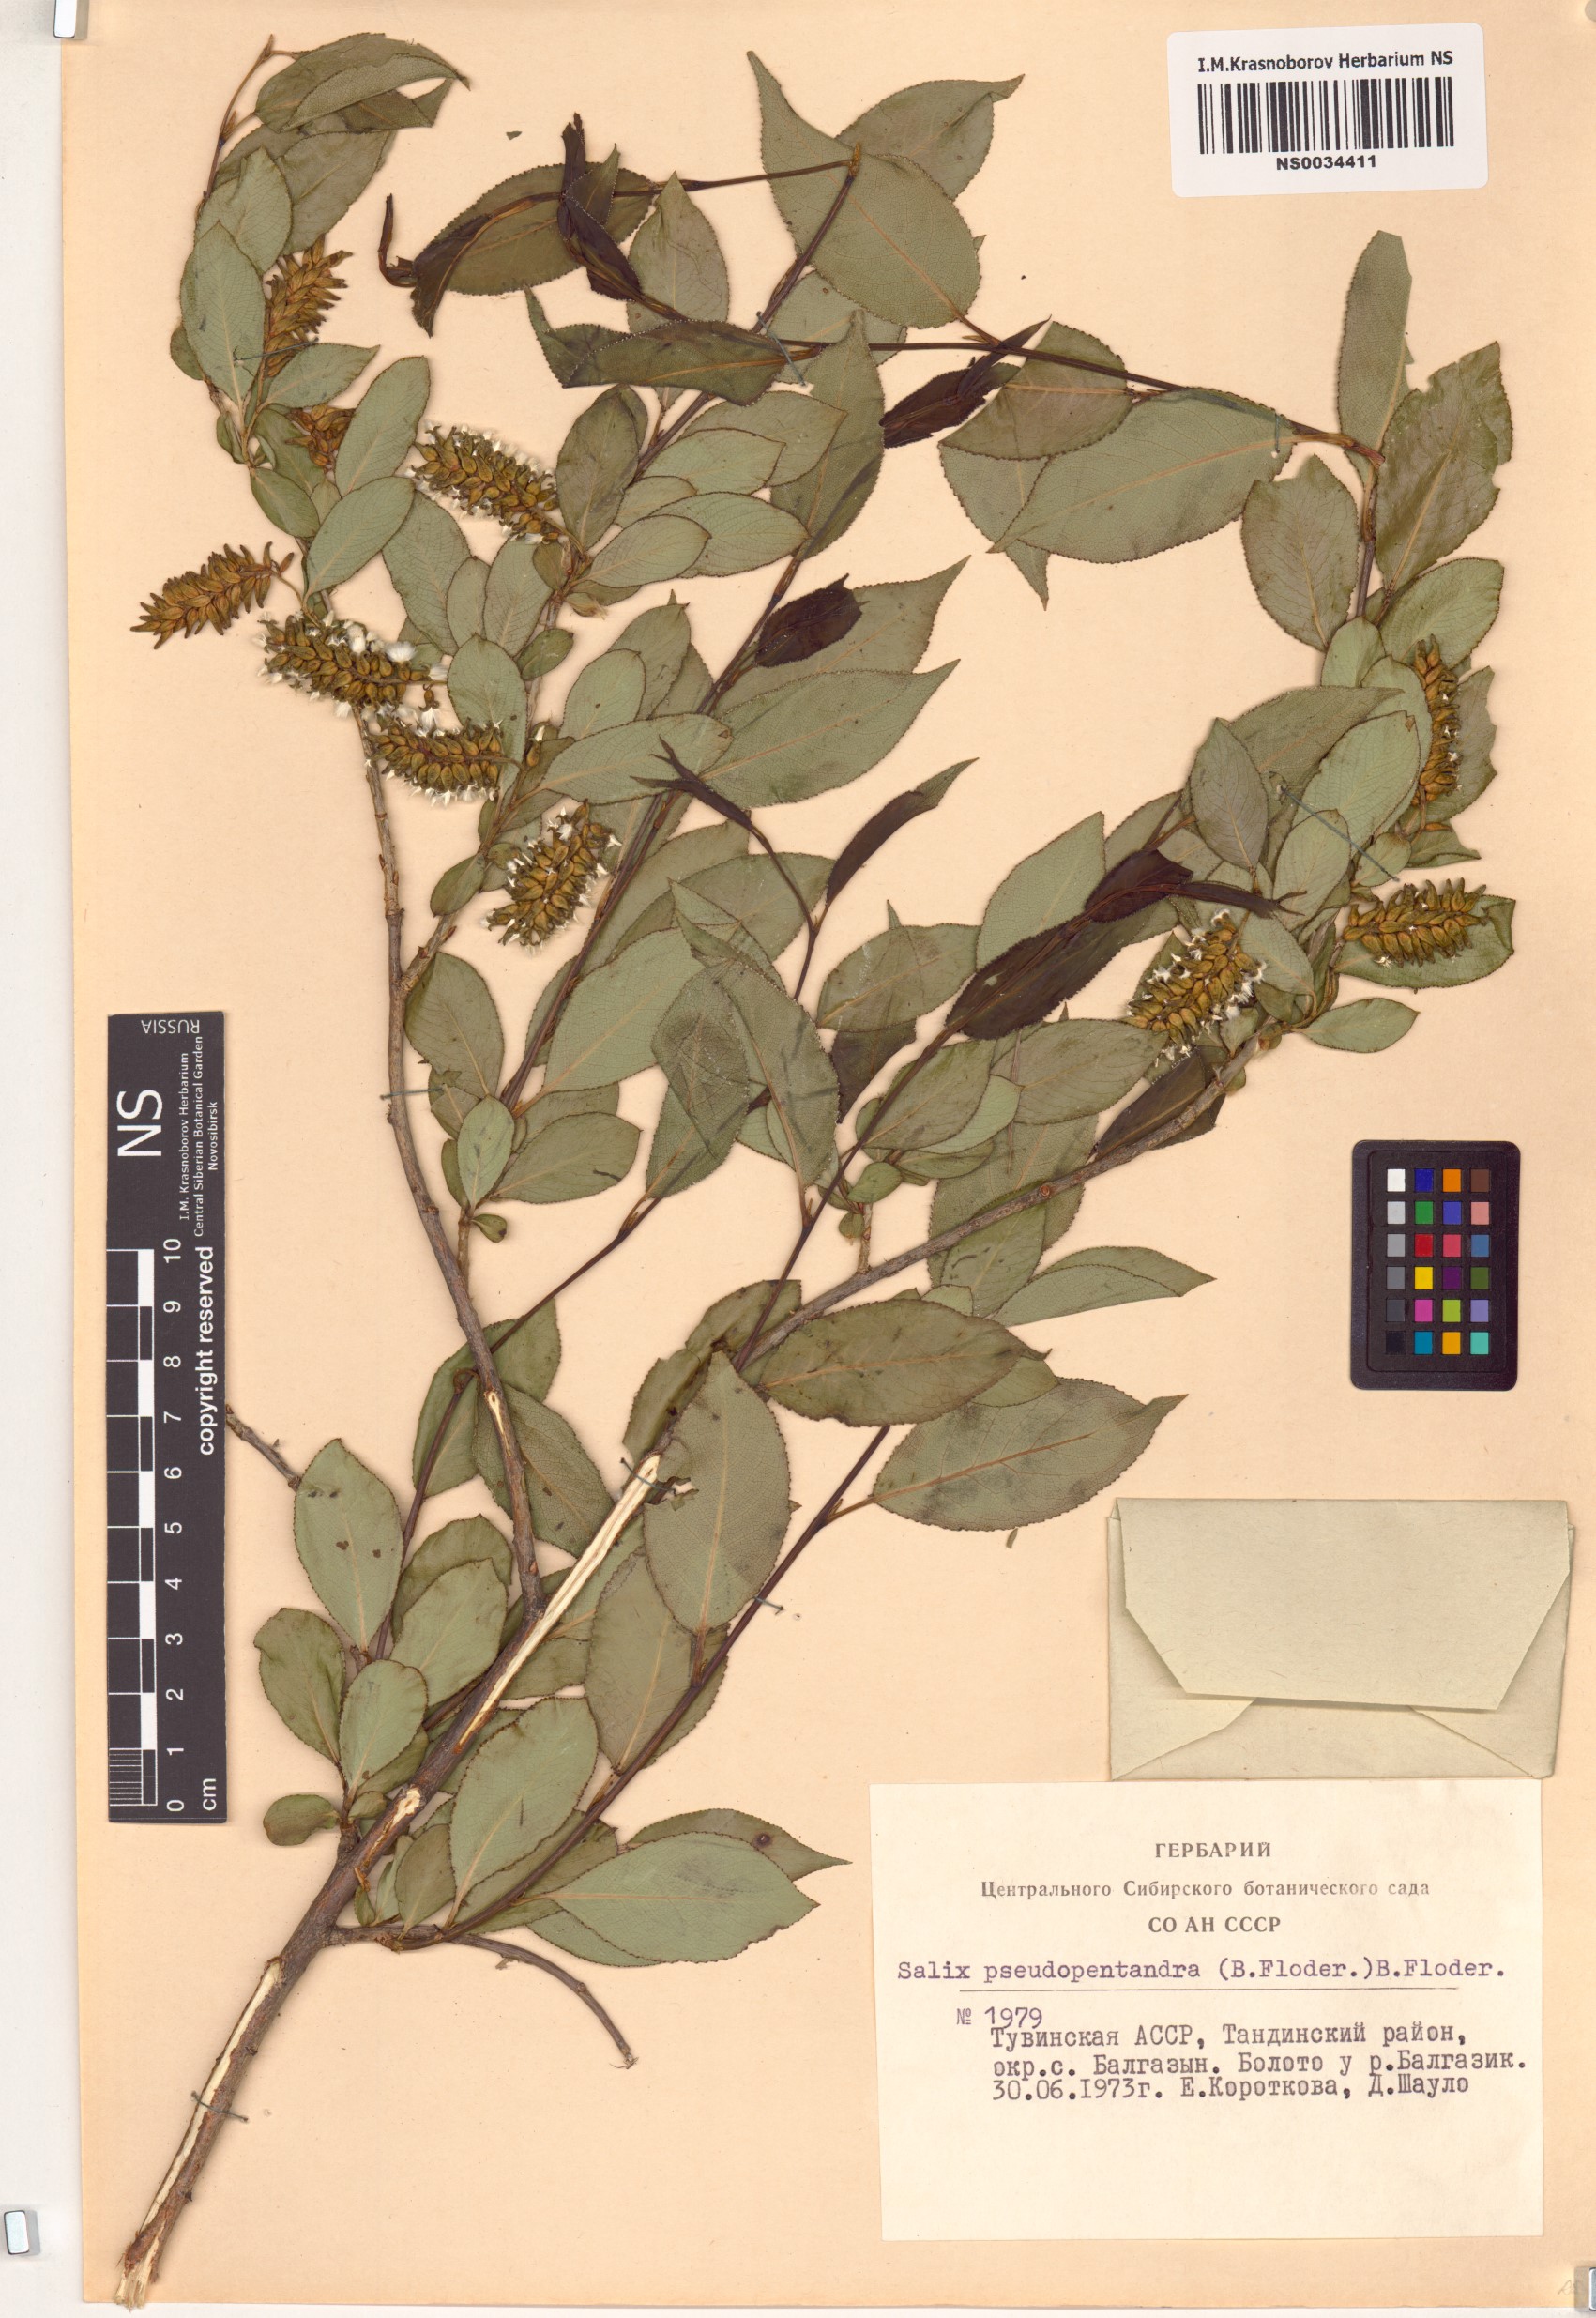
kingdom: Plantae
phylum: Tracheophyta
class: Magnoliopsida
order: Malpighiales
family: Salicaceae
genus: Salix
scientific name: Salix pseudopentandra
